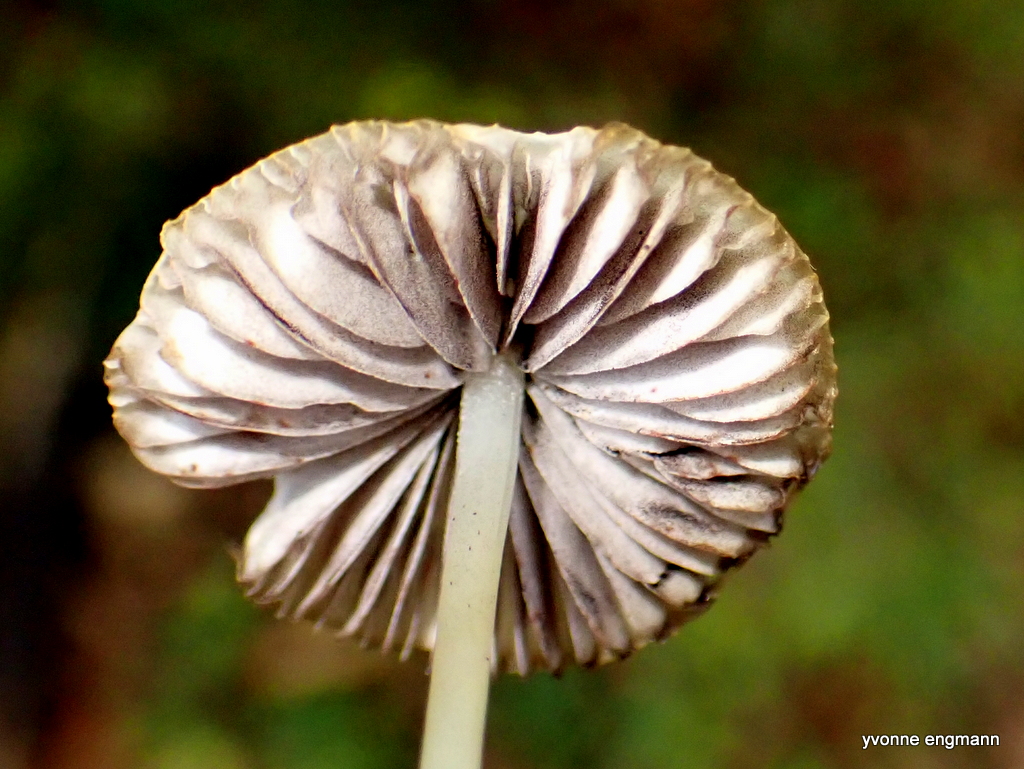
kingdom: Fungi
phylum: Basidiomycota
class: Agaricomycetes
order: Agaricales
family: Psathyrellaceae
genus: Psathyrella
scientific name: Psathyrella
